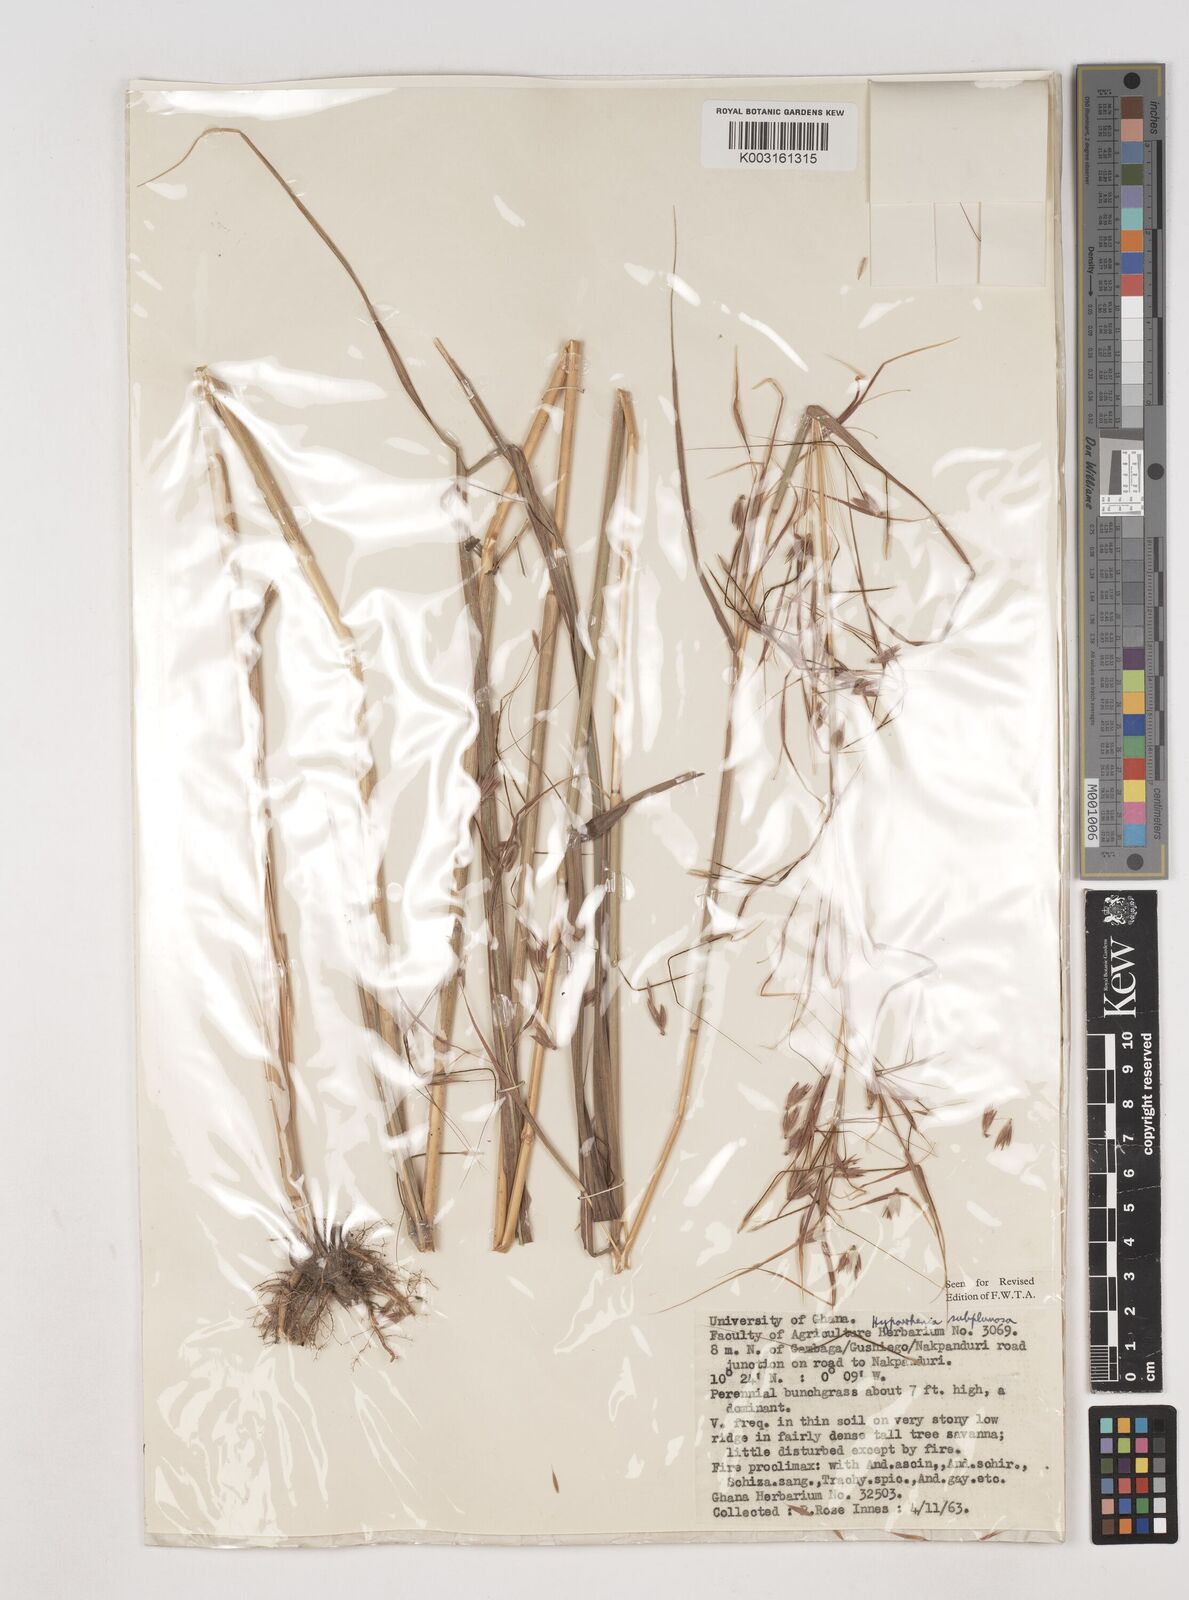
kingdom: Plantae
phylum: Tracheophyta
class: Liliopsida
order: Poales
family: Poaceae
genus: Hyparrhenia
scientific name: Hyparrhenia subplumosa
